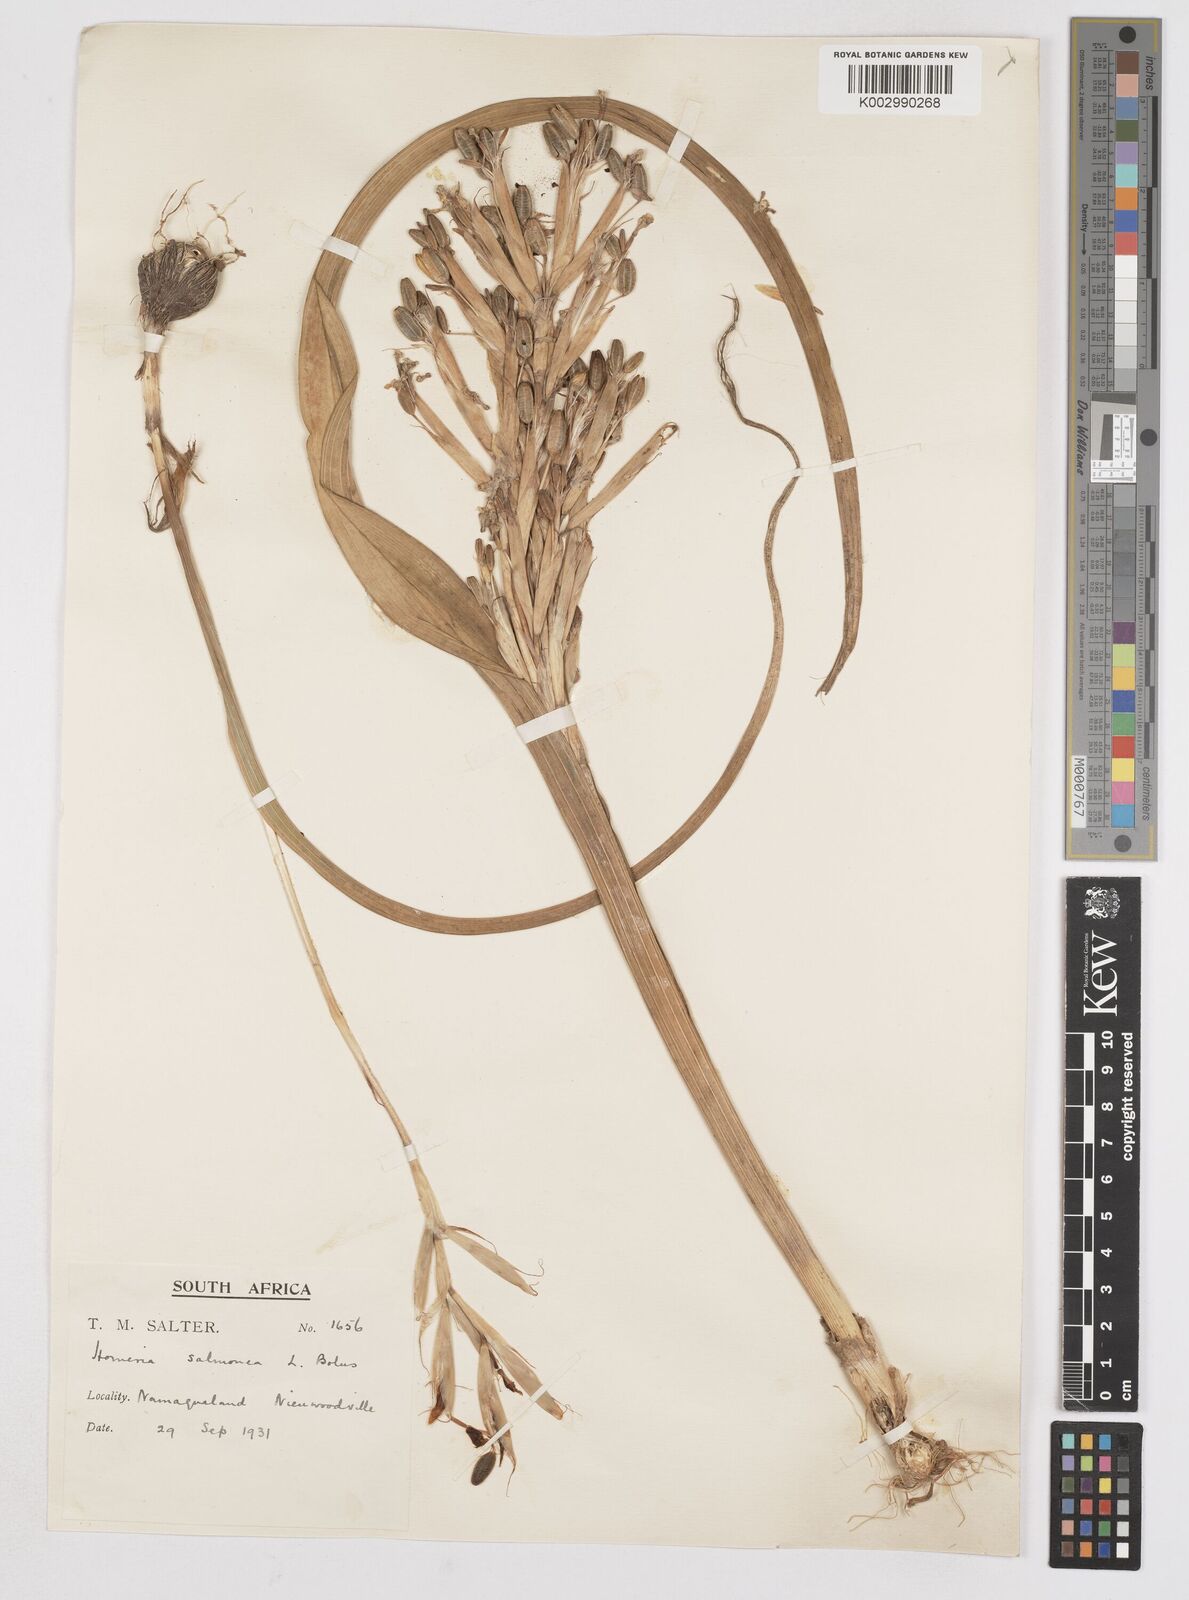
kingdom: Plantae
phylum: Tracheophyta
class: Liliopsida
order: Asparagales
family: Iridaceae
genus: Moraea
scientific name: Moraea bifida
